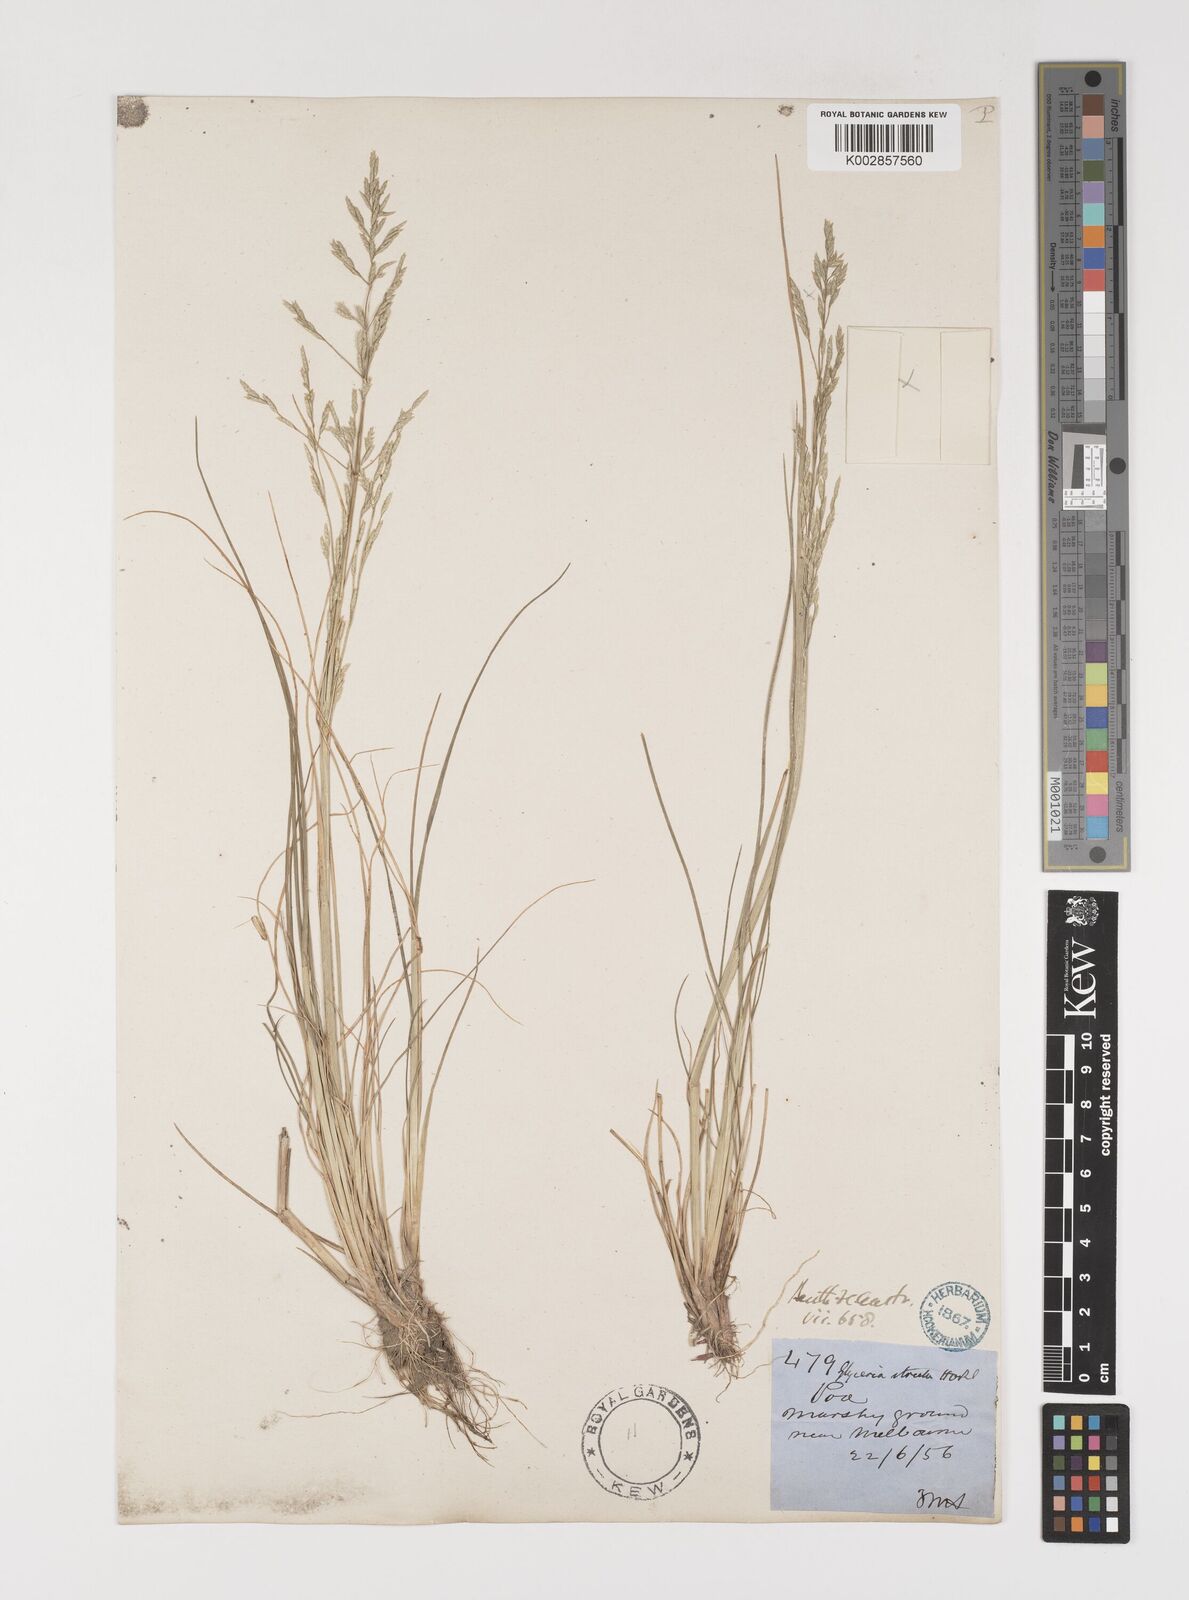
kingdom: Plantae
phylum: Tracheophyta
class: Liliopsida
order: Poales
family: Poaceae
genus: Puccinellia
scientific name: Puccinellia stricta
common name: Australian saltmarsh grass
